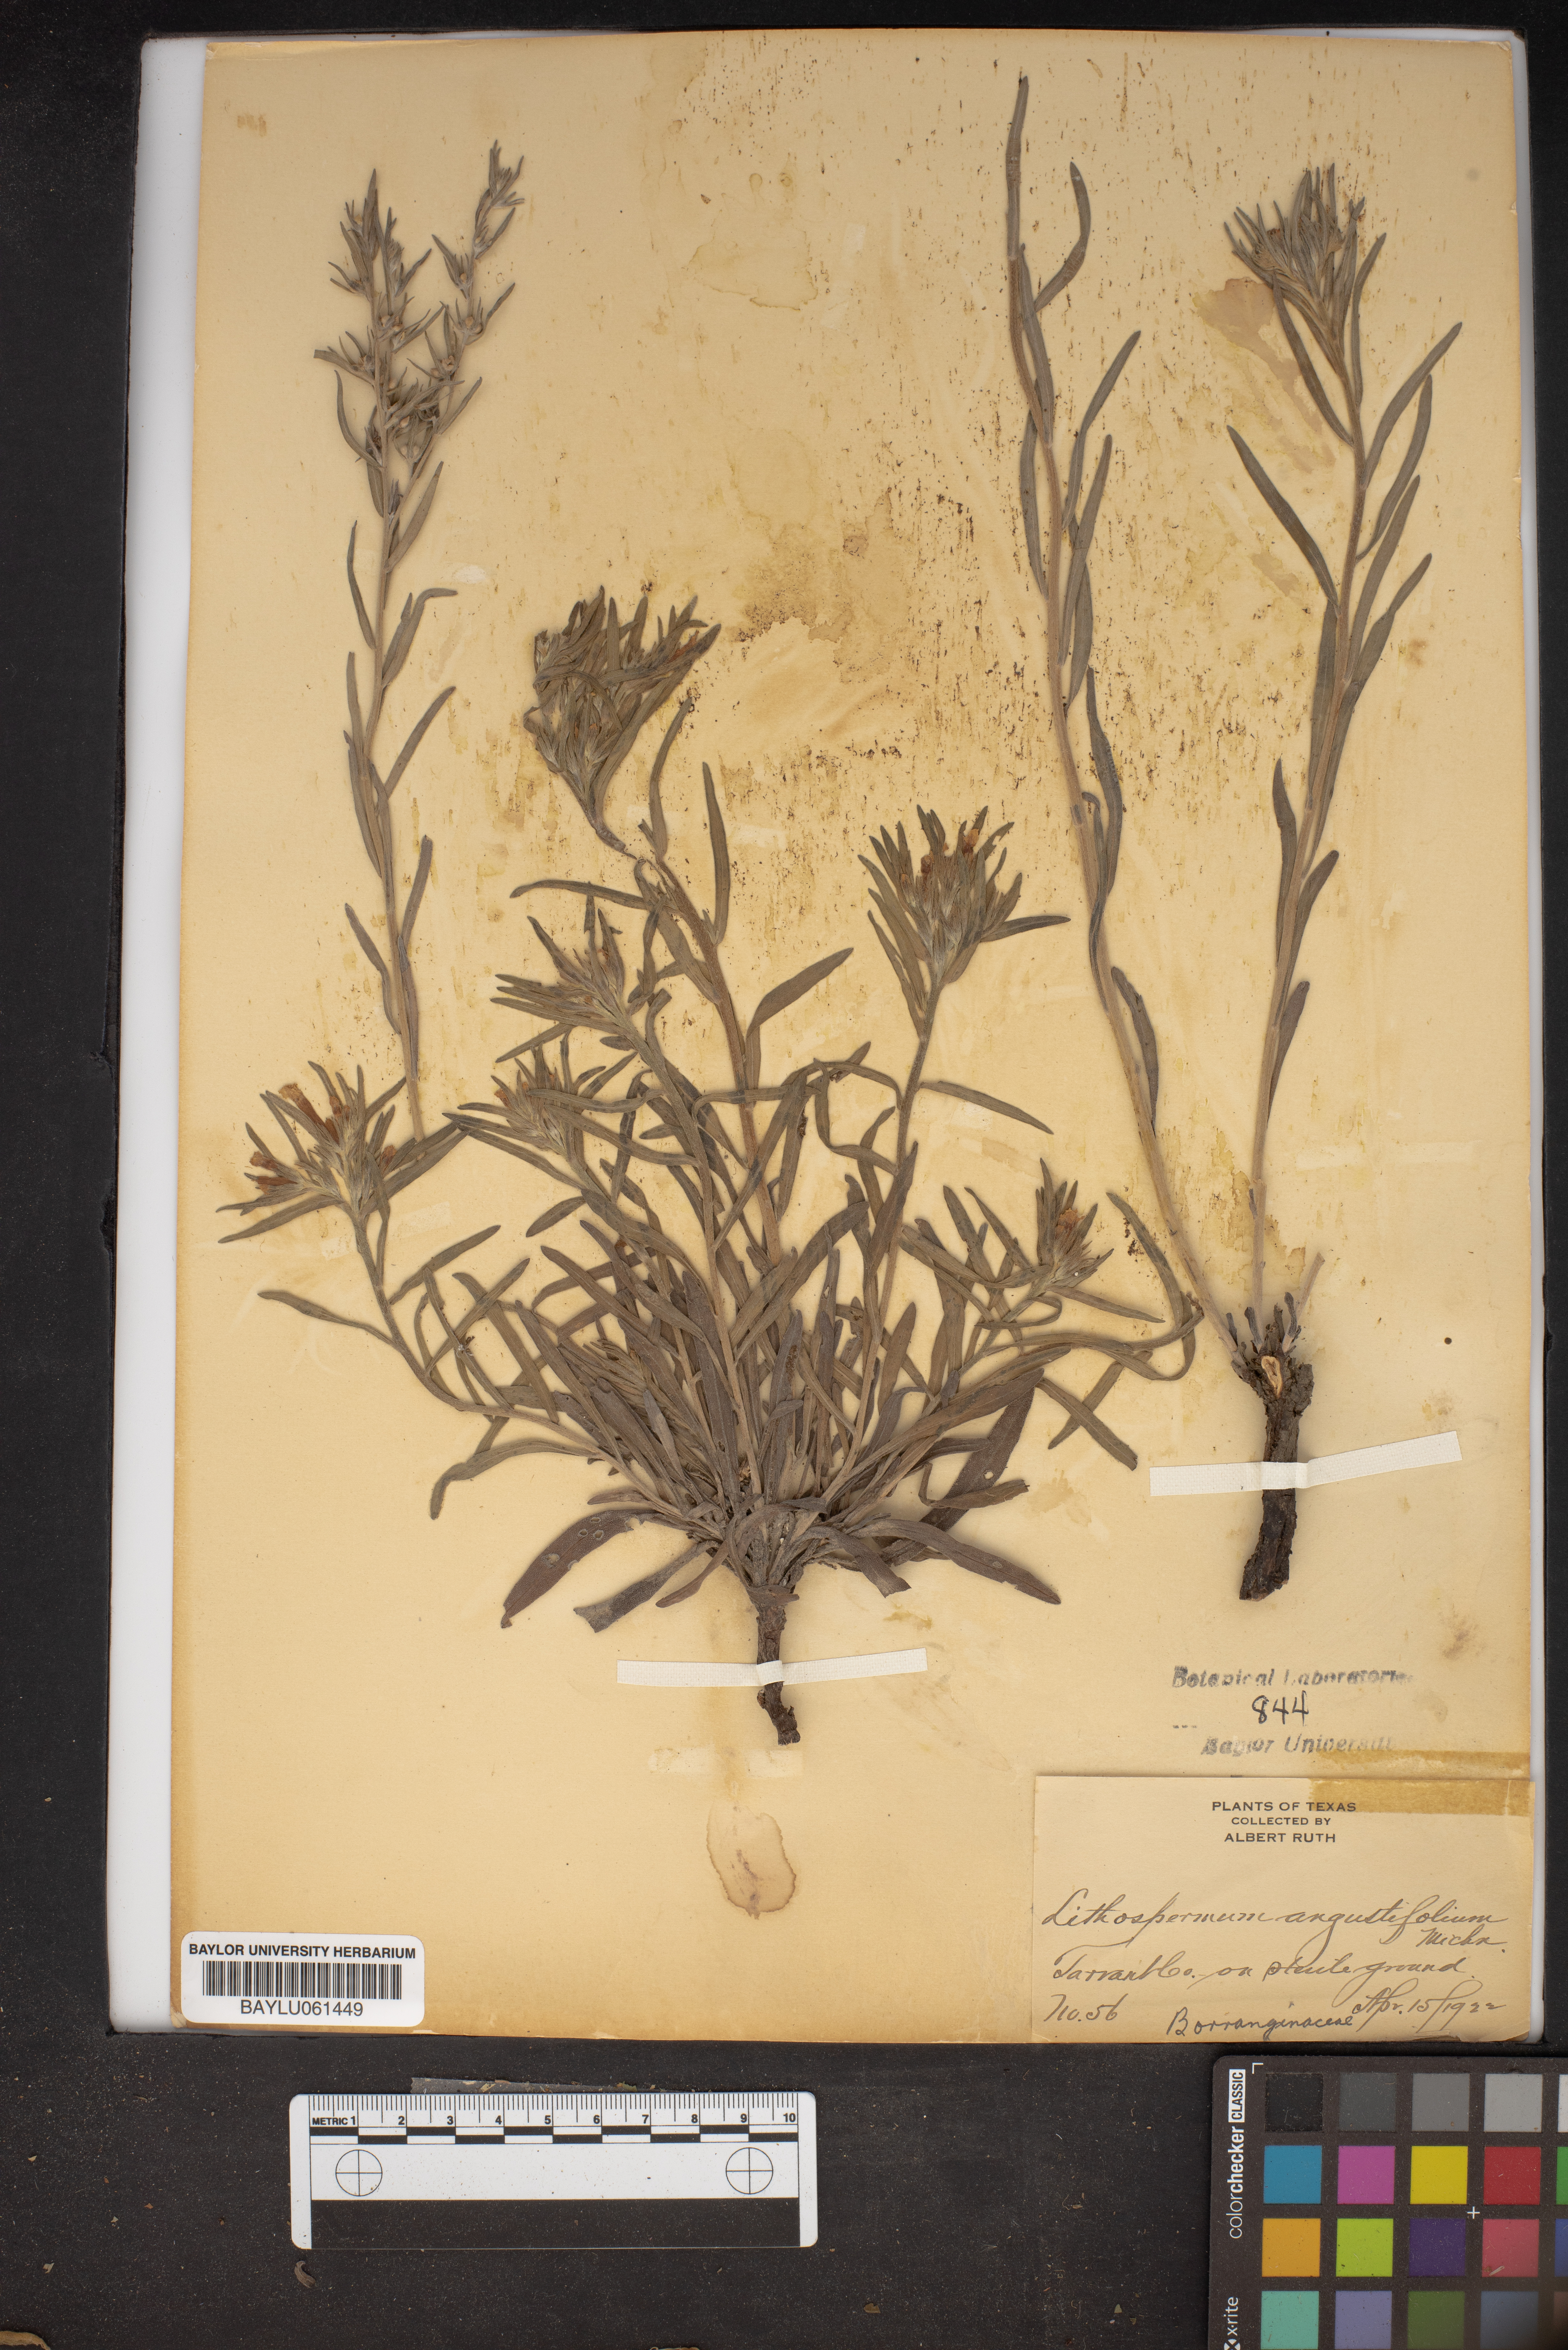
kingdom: Plantae
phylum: Tracheophyta
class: Magnoliopsida
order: Boraginales
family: Boraginaceae
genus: Lithospermum
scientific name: Lithospermum incisum
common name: Fringed gromwell
